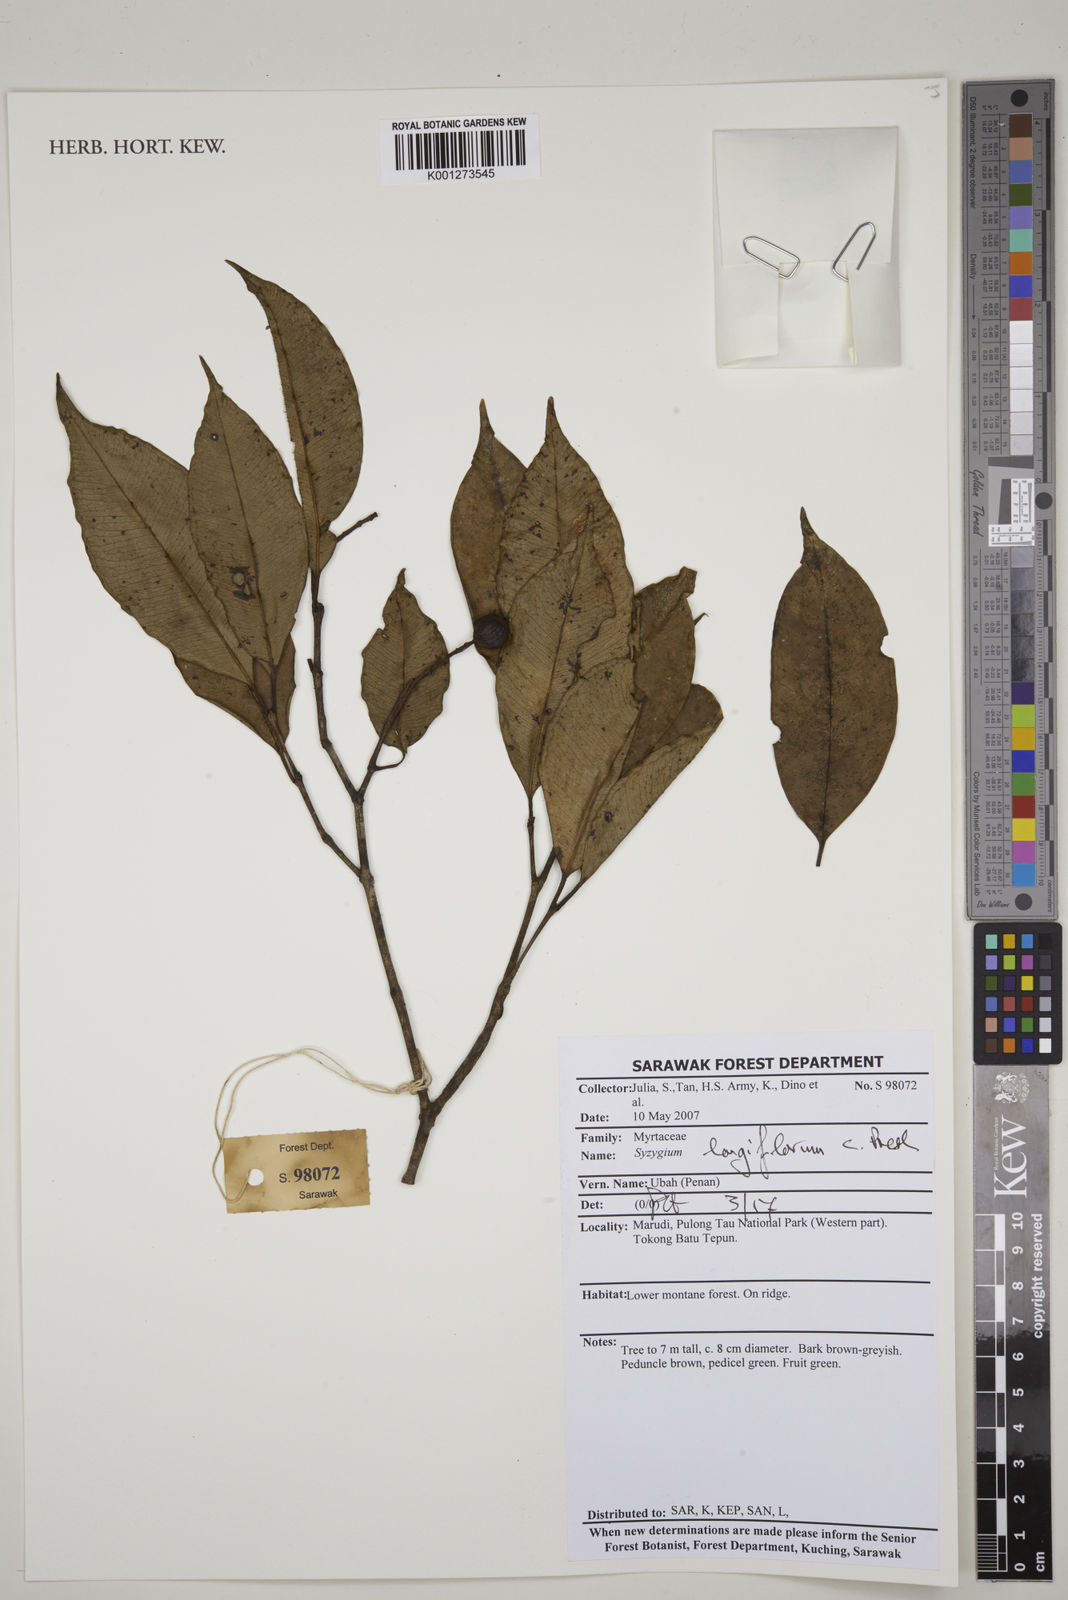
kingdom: Plantae
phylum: Tracheophyta
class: Magnoliopsida
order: Myrtales
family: Myrtaceae
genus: Syzygium
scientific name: Syzygium lineatum
